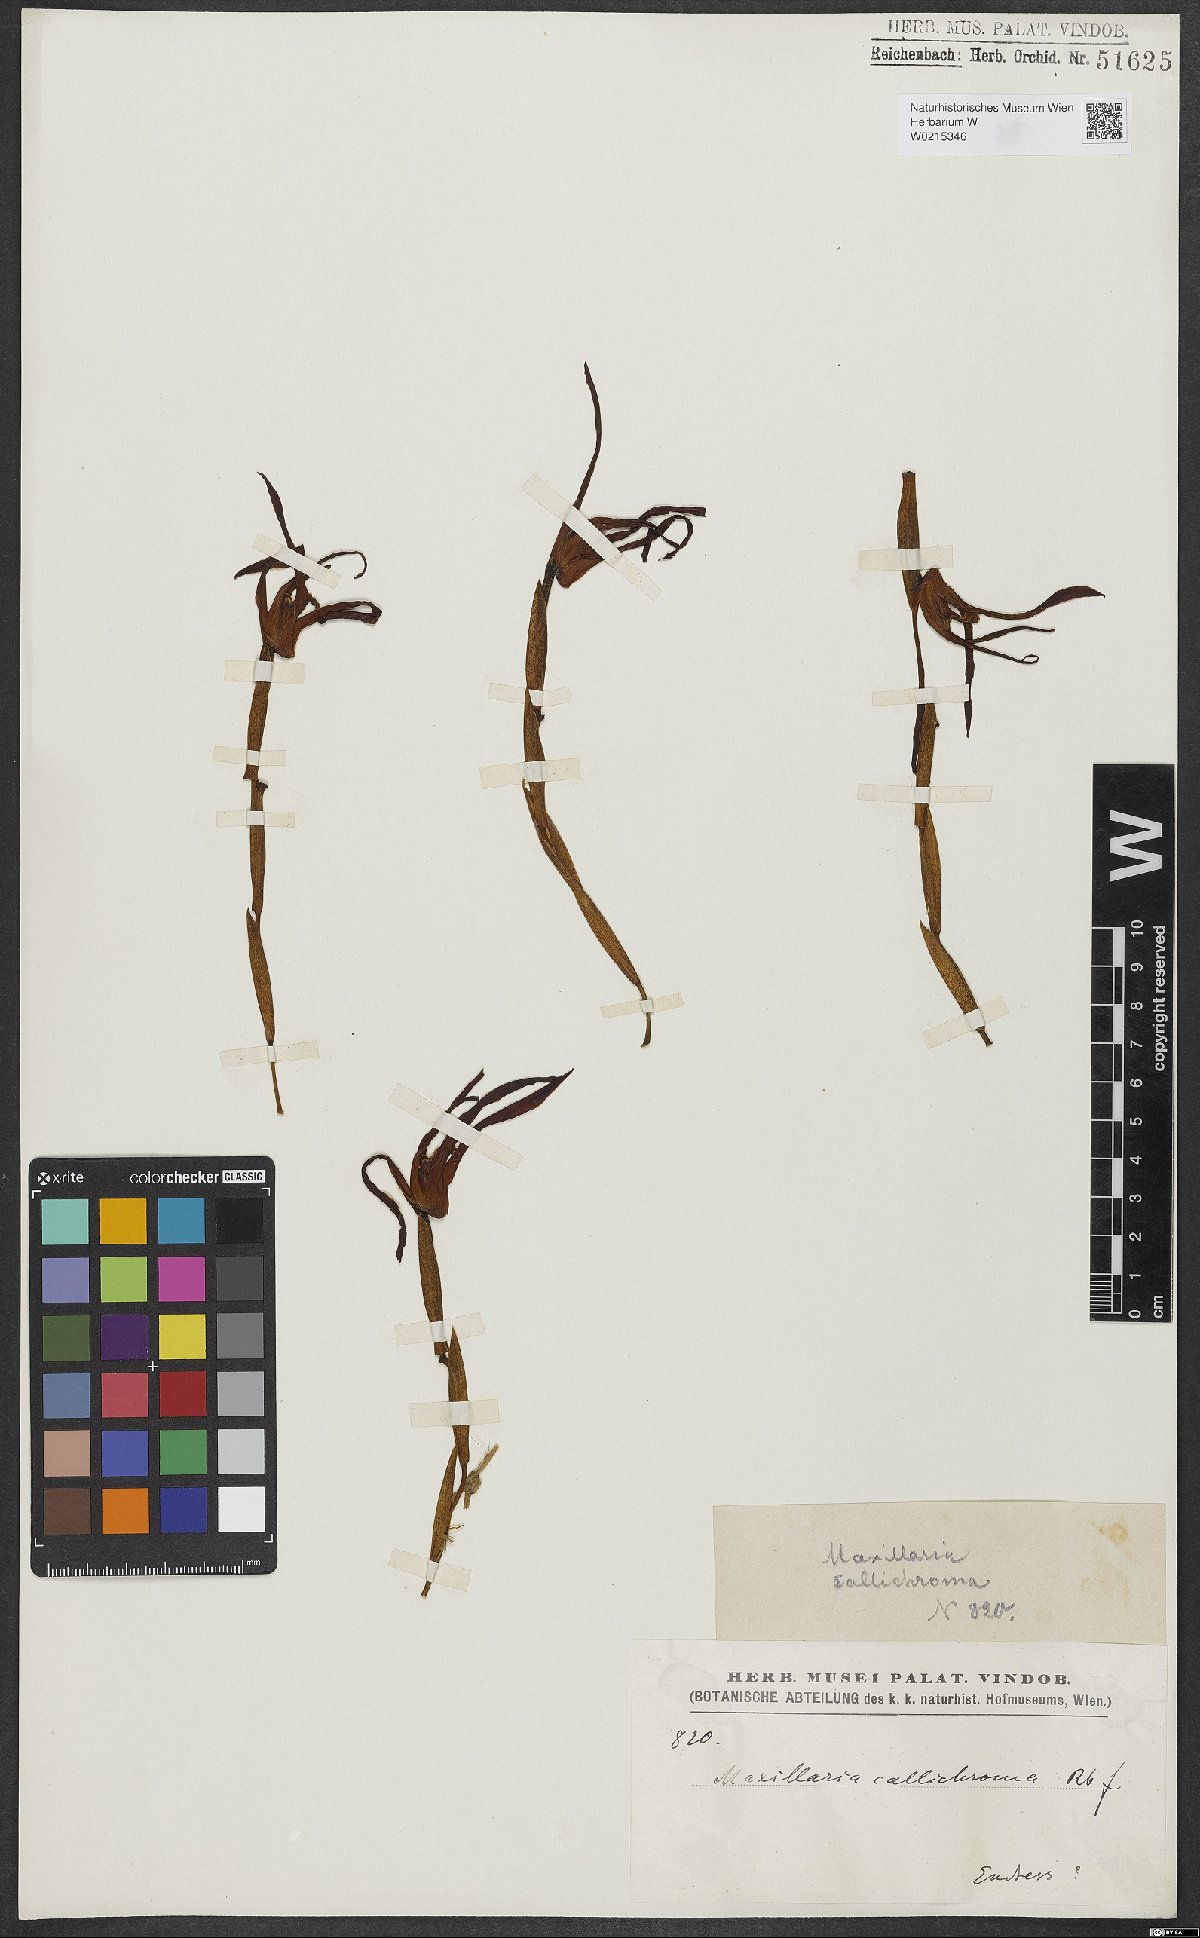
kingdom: Plantae
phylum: Tracheophyta
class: Liliopsida
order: Asparagales
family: Orchidaceae
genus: Maxillaria
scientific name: Maxillaria callichroma
